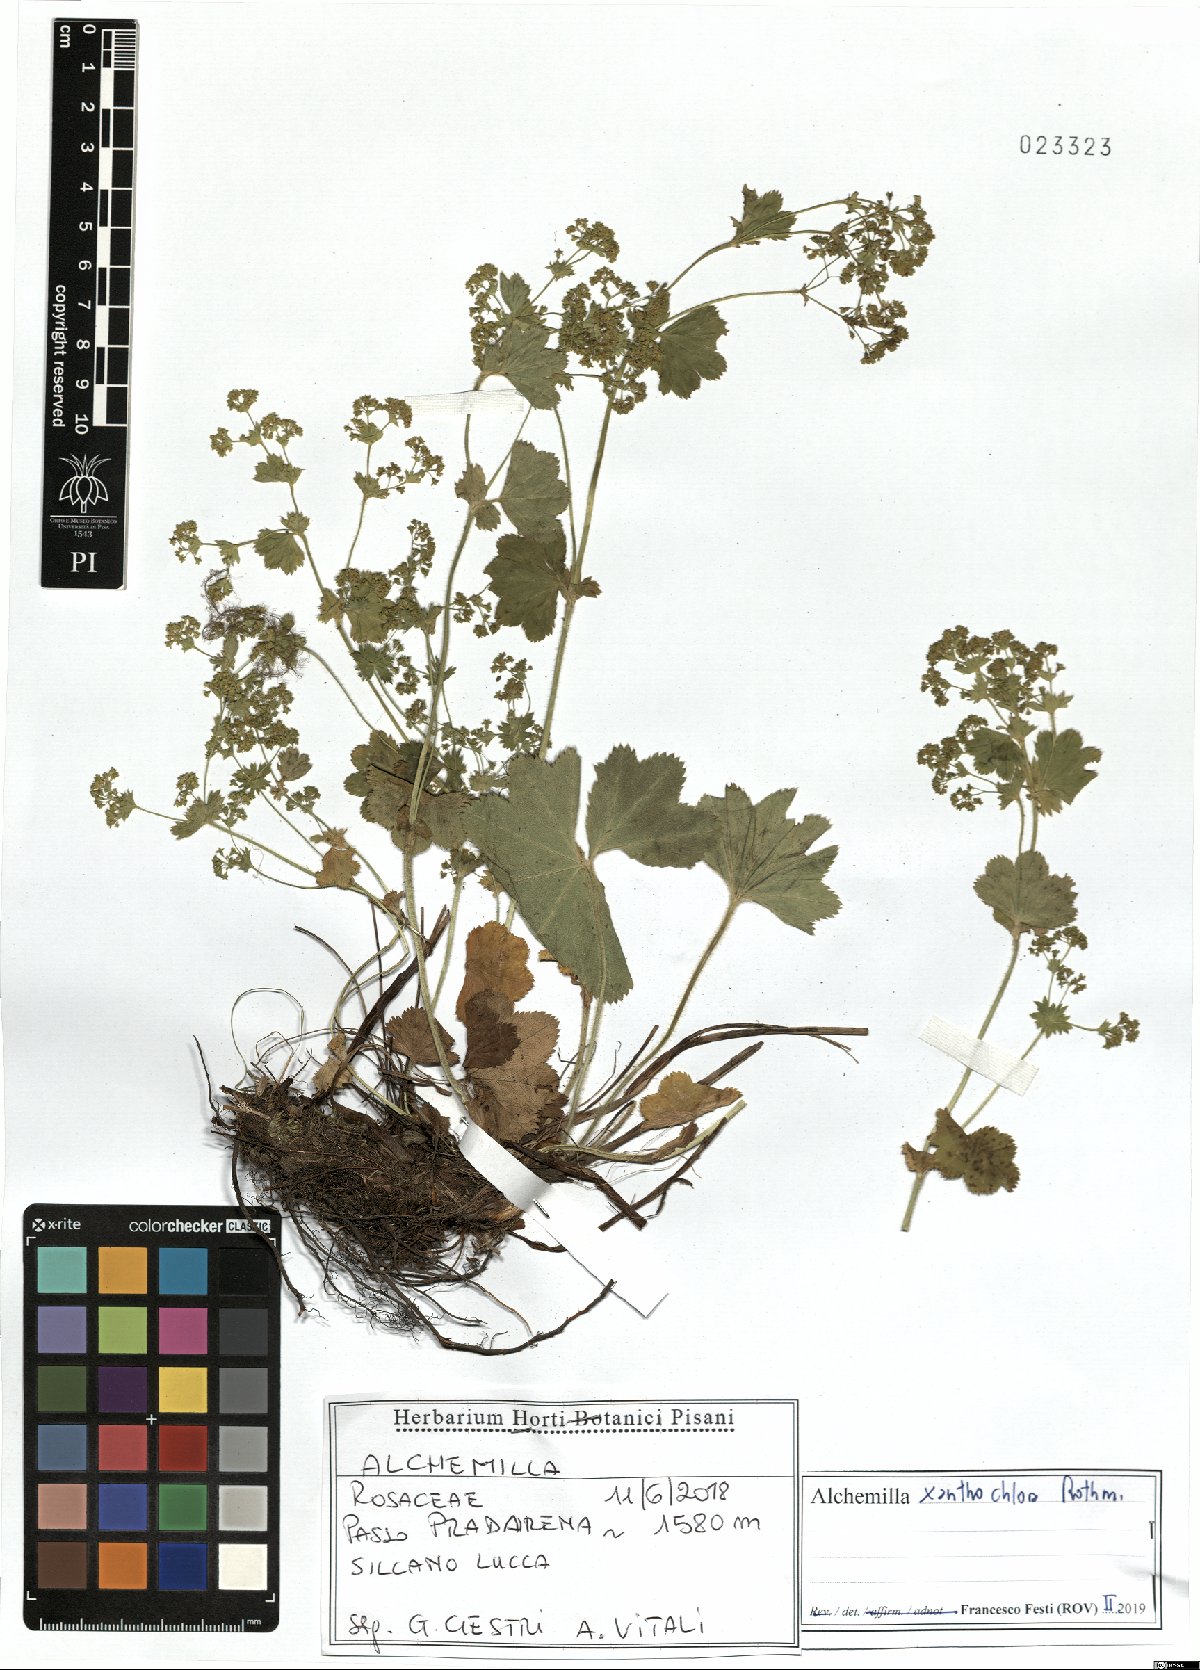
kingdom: Plantae
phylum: Tracheophyta
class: Magnoliopsida
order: Rosales
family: Rosaceae
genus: Alchemilla
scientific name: Alchemilla xanthochlora
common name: Intermediate lady's-mantle
